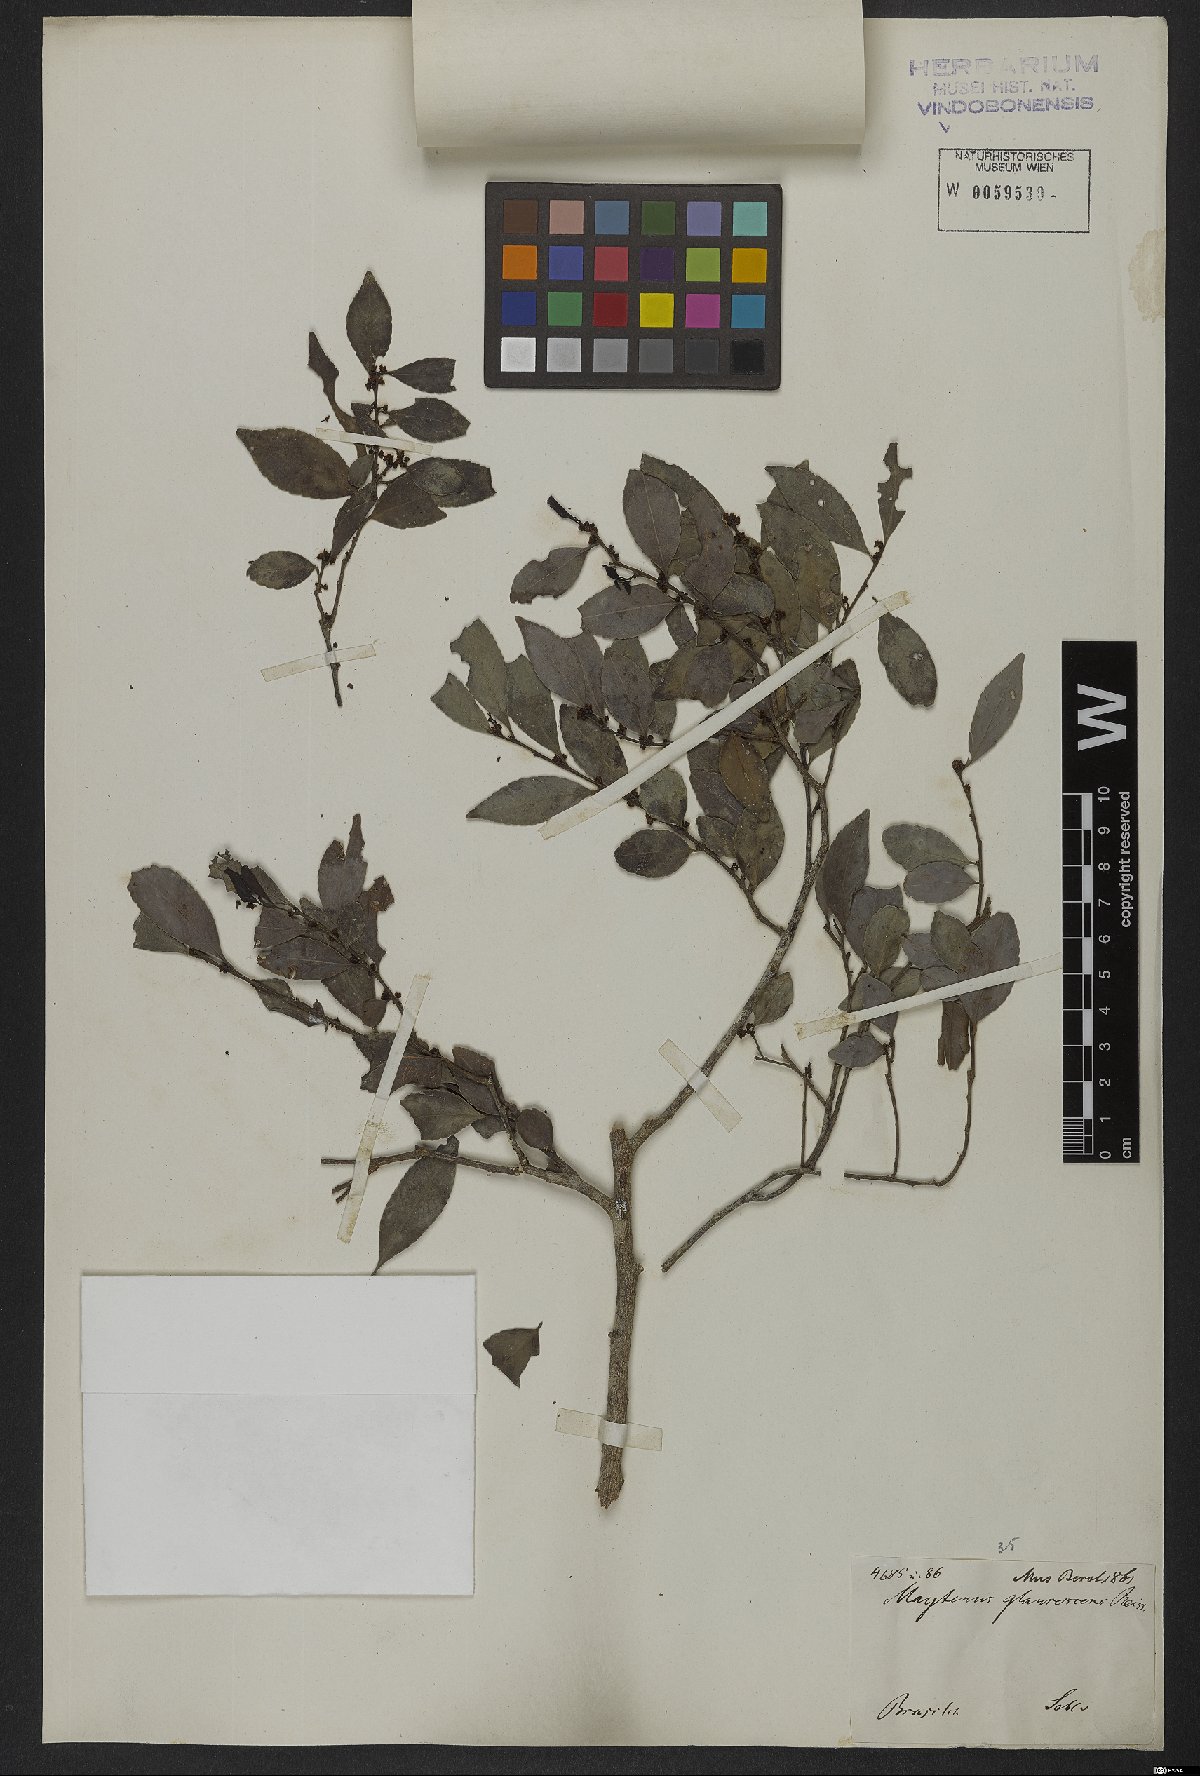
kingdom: Plantae
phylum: Tracheophyta
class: Magnoliopsida
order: Celastrales
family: Celastraceae
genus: Monteverdia
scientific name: Monteverdia glaucescens
